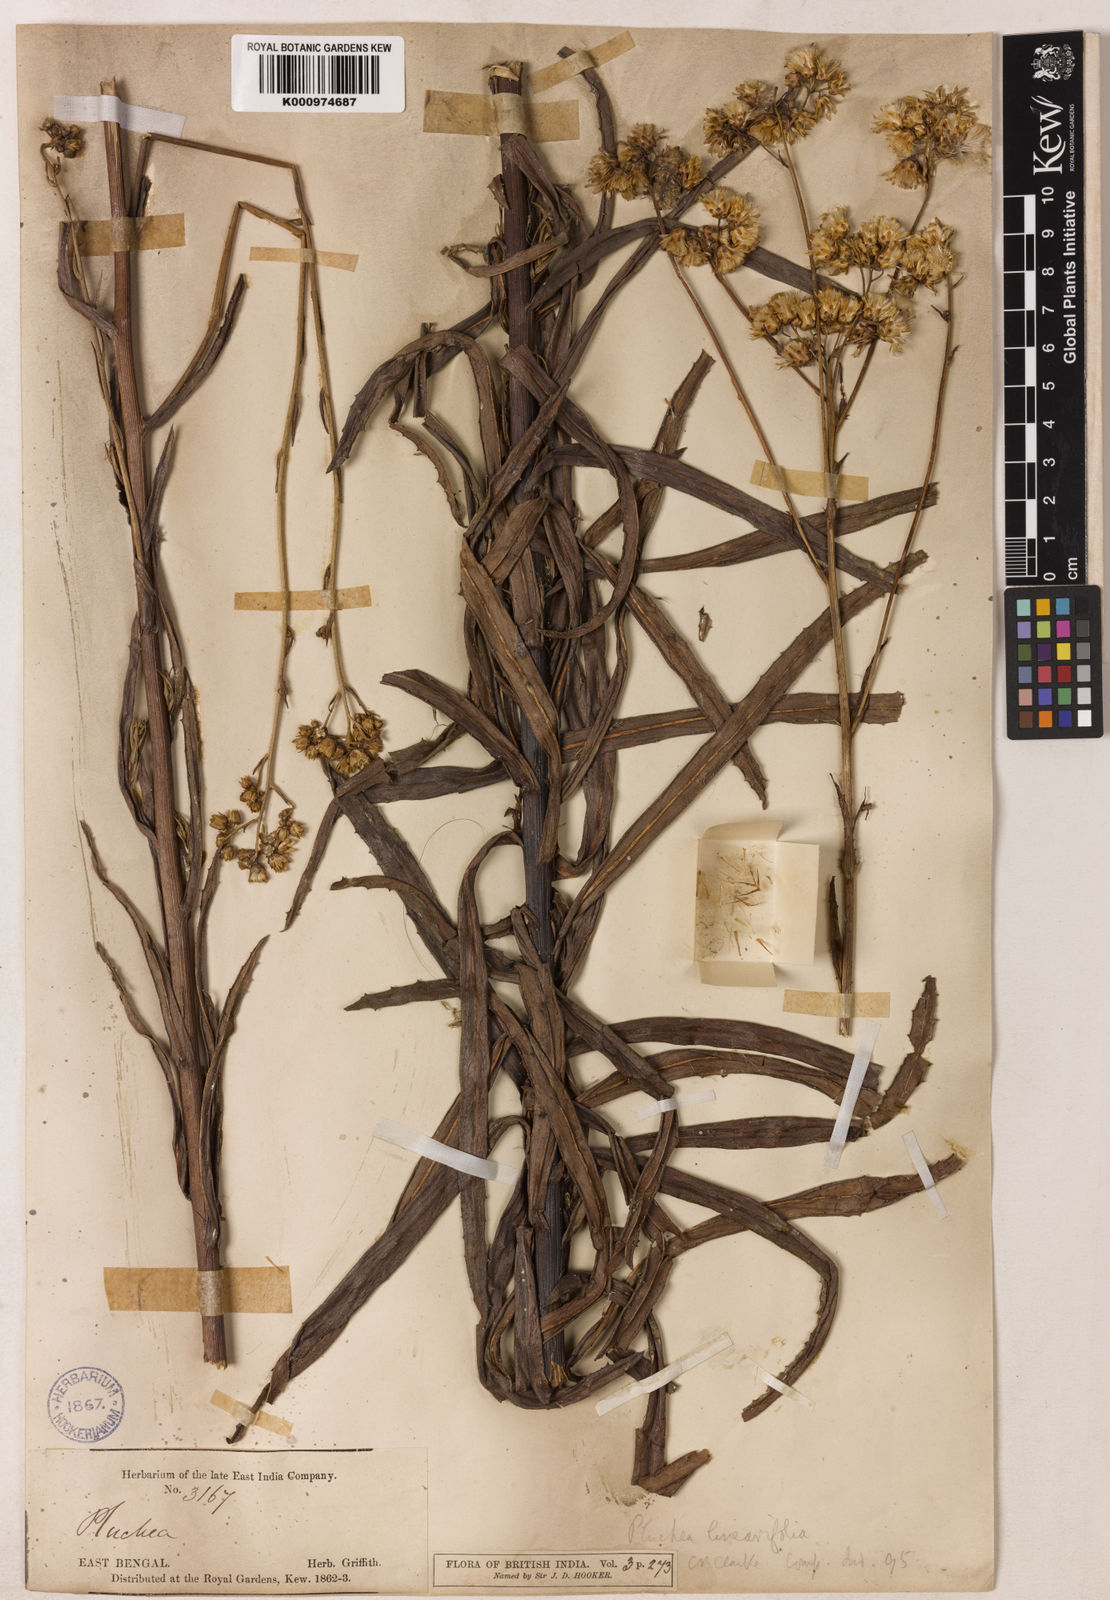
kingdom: Plantae
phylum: Tracheophyta
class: Magnoliopsida
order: Asterales
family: Asteraceae
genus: Pluchea
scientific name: Pluchea linearifolia
